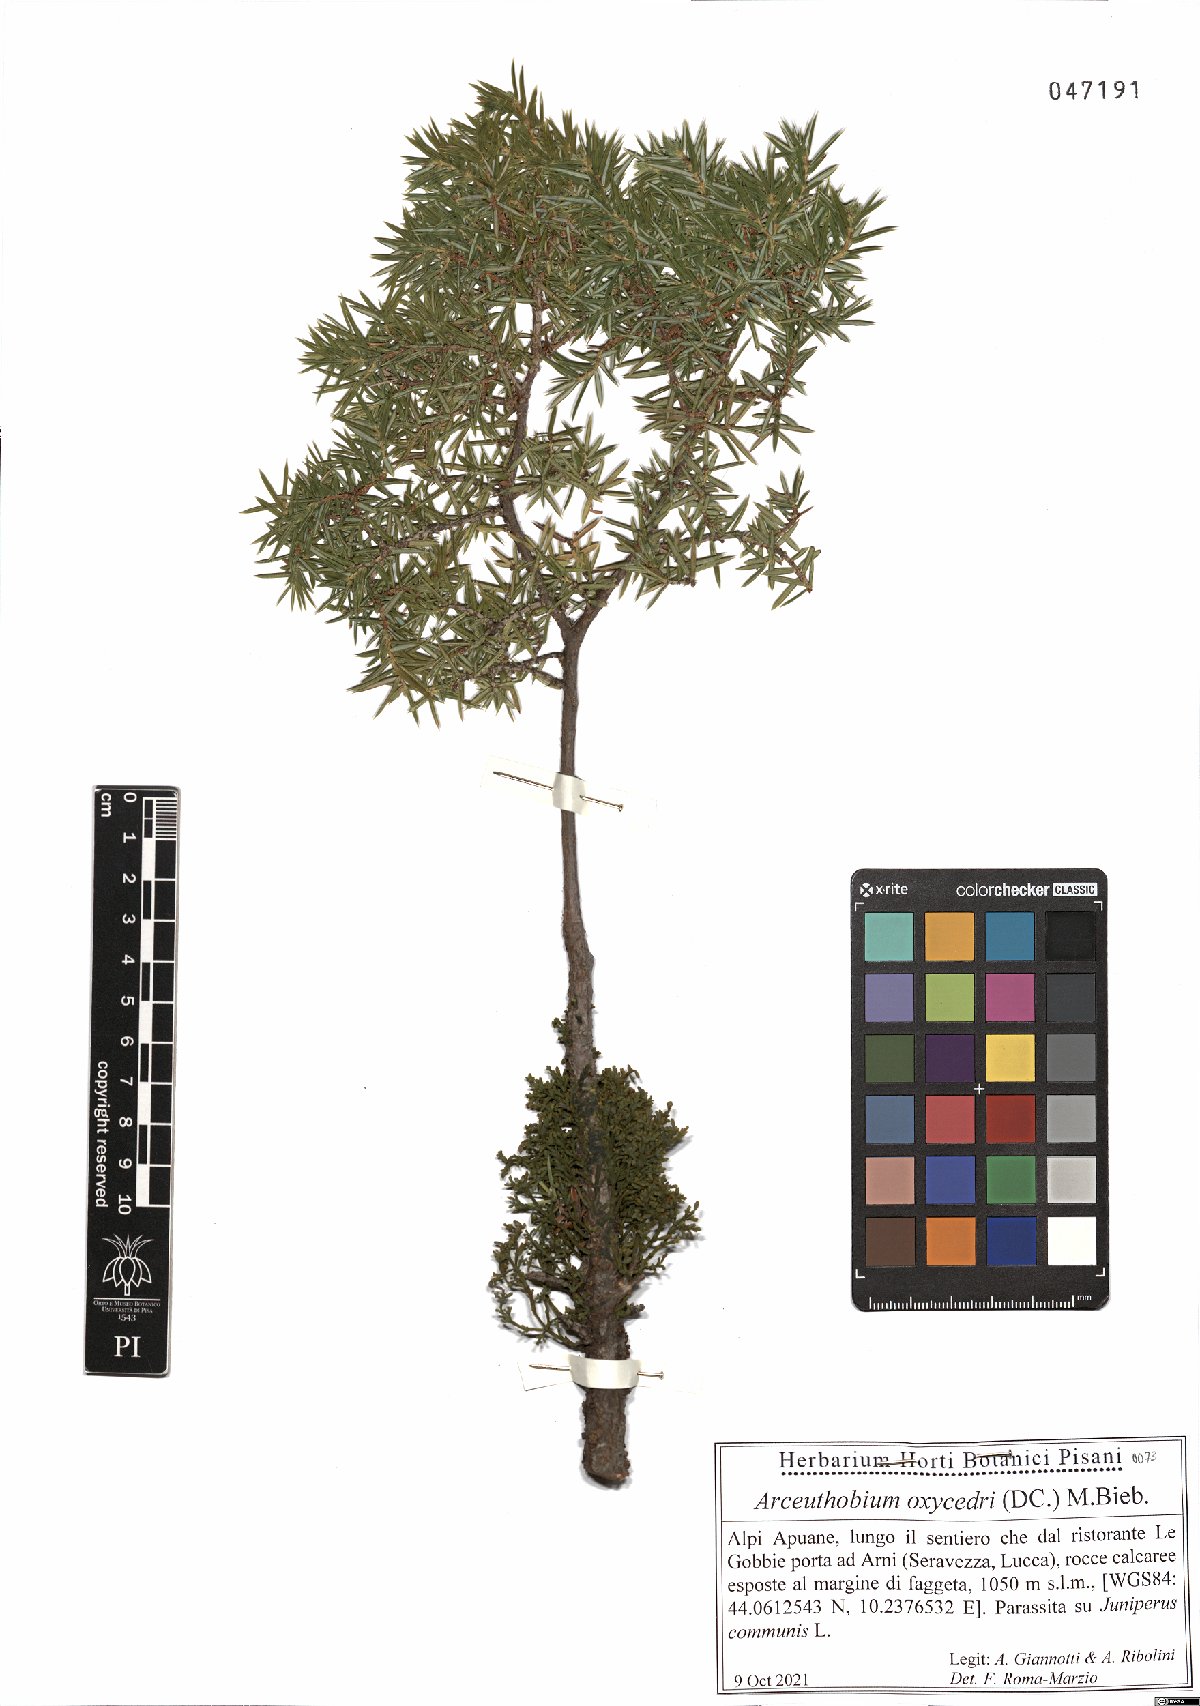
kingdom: Plantae
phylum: Tracheophyta
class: Magnoliopsida
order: Santalales
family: Viscaceae
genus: Arceuthobium
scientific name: Arceuthobium oxycedri
